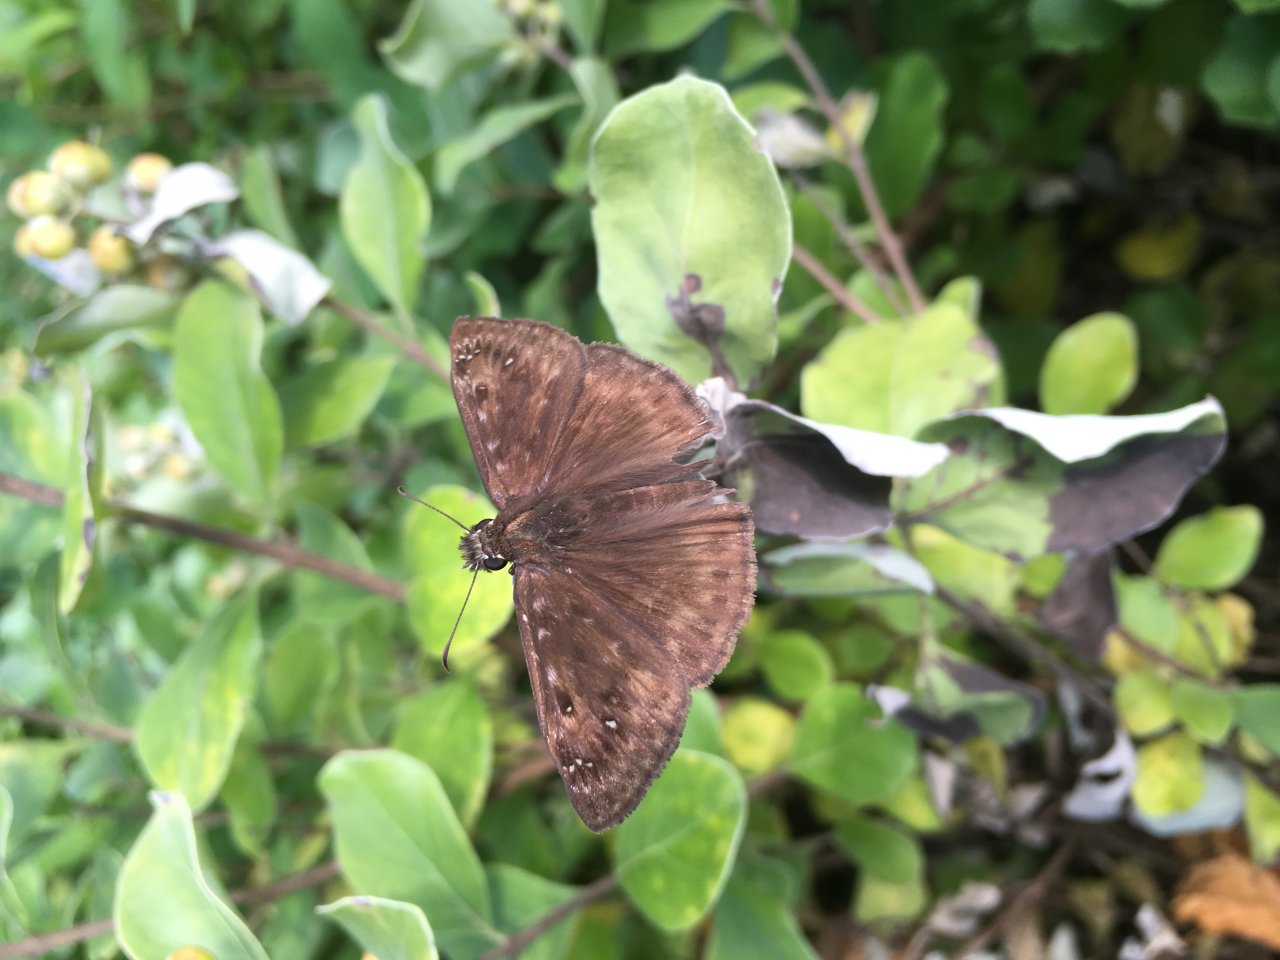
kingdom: Animalia
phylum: Arthropoda
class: Insecta
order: Lepidoptera
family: Hesperiidae
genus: Gesta
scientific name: Gesta
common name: Horace's Duskywing
